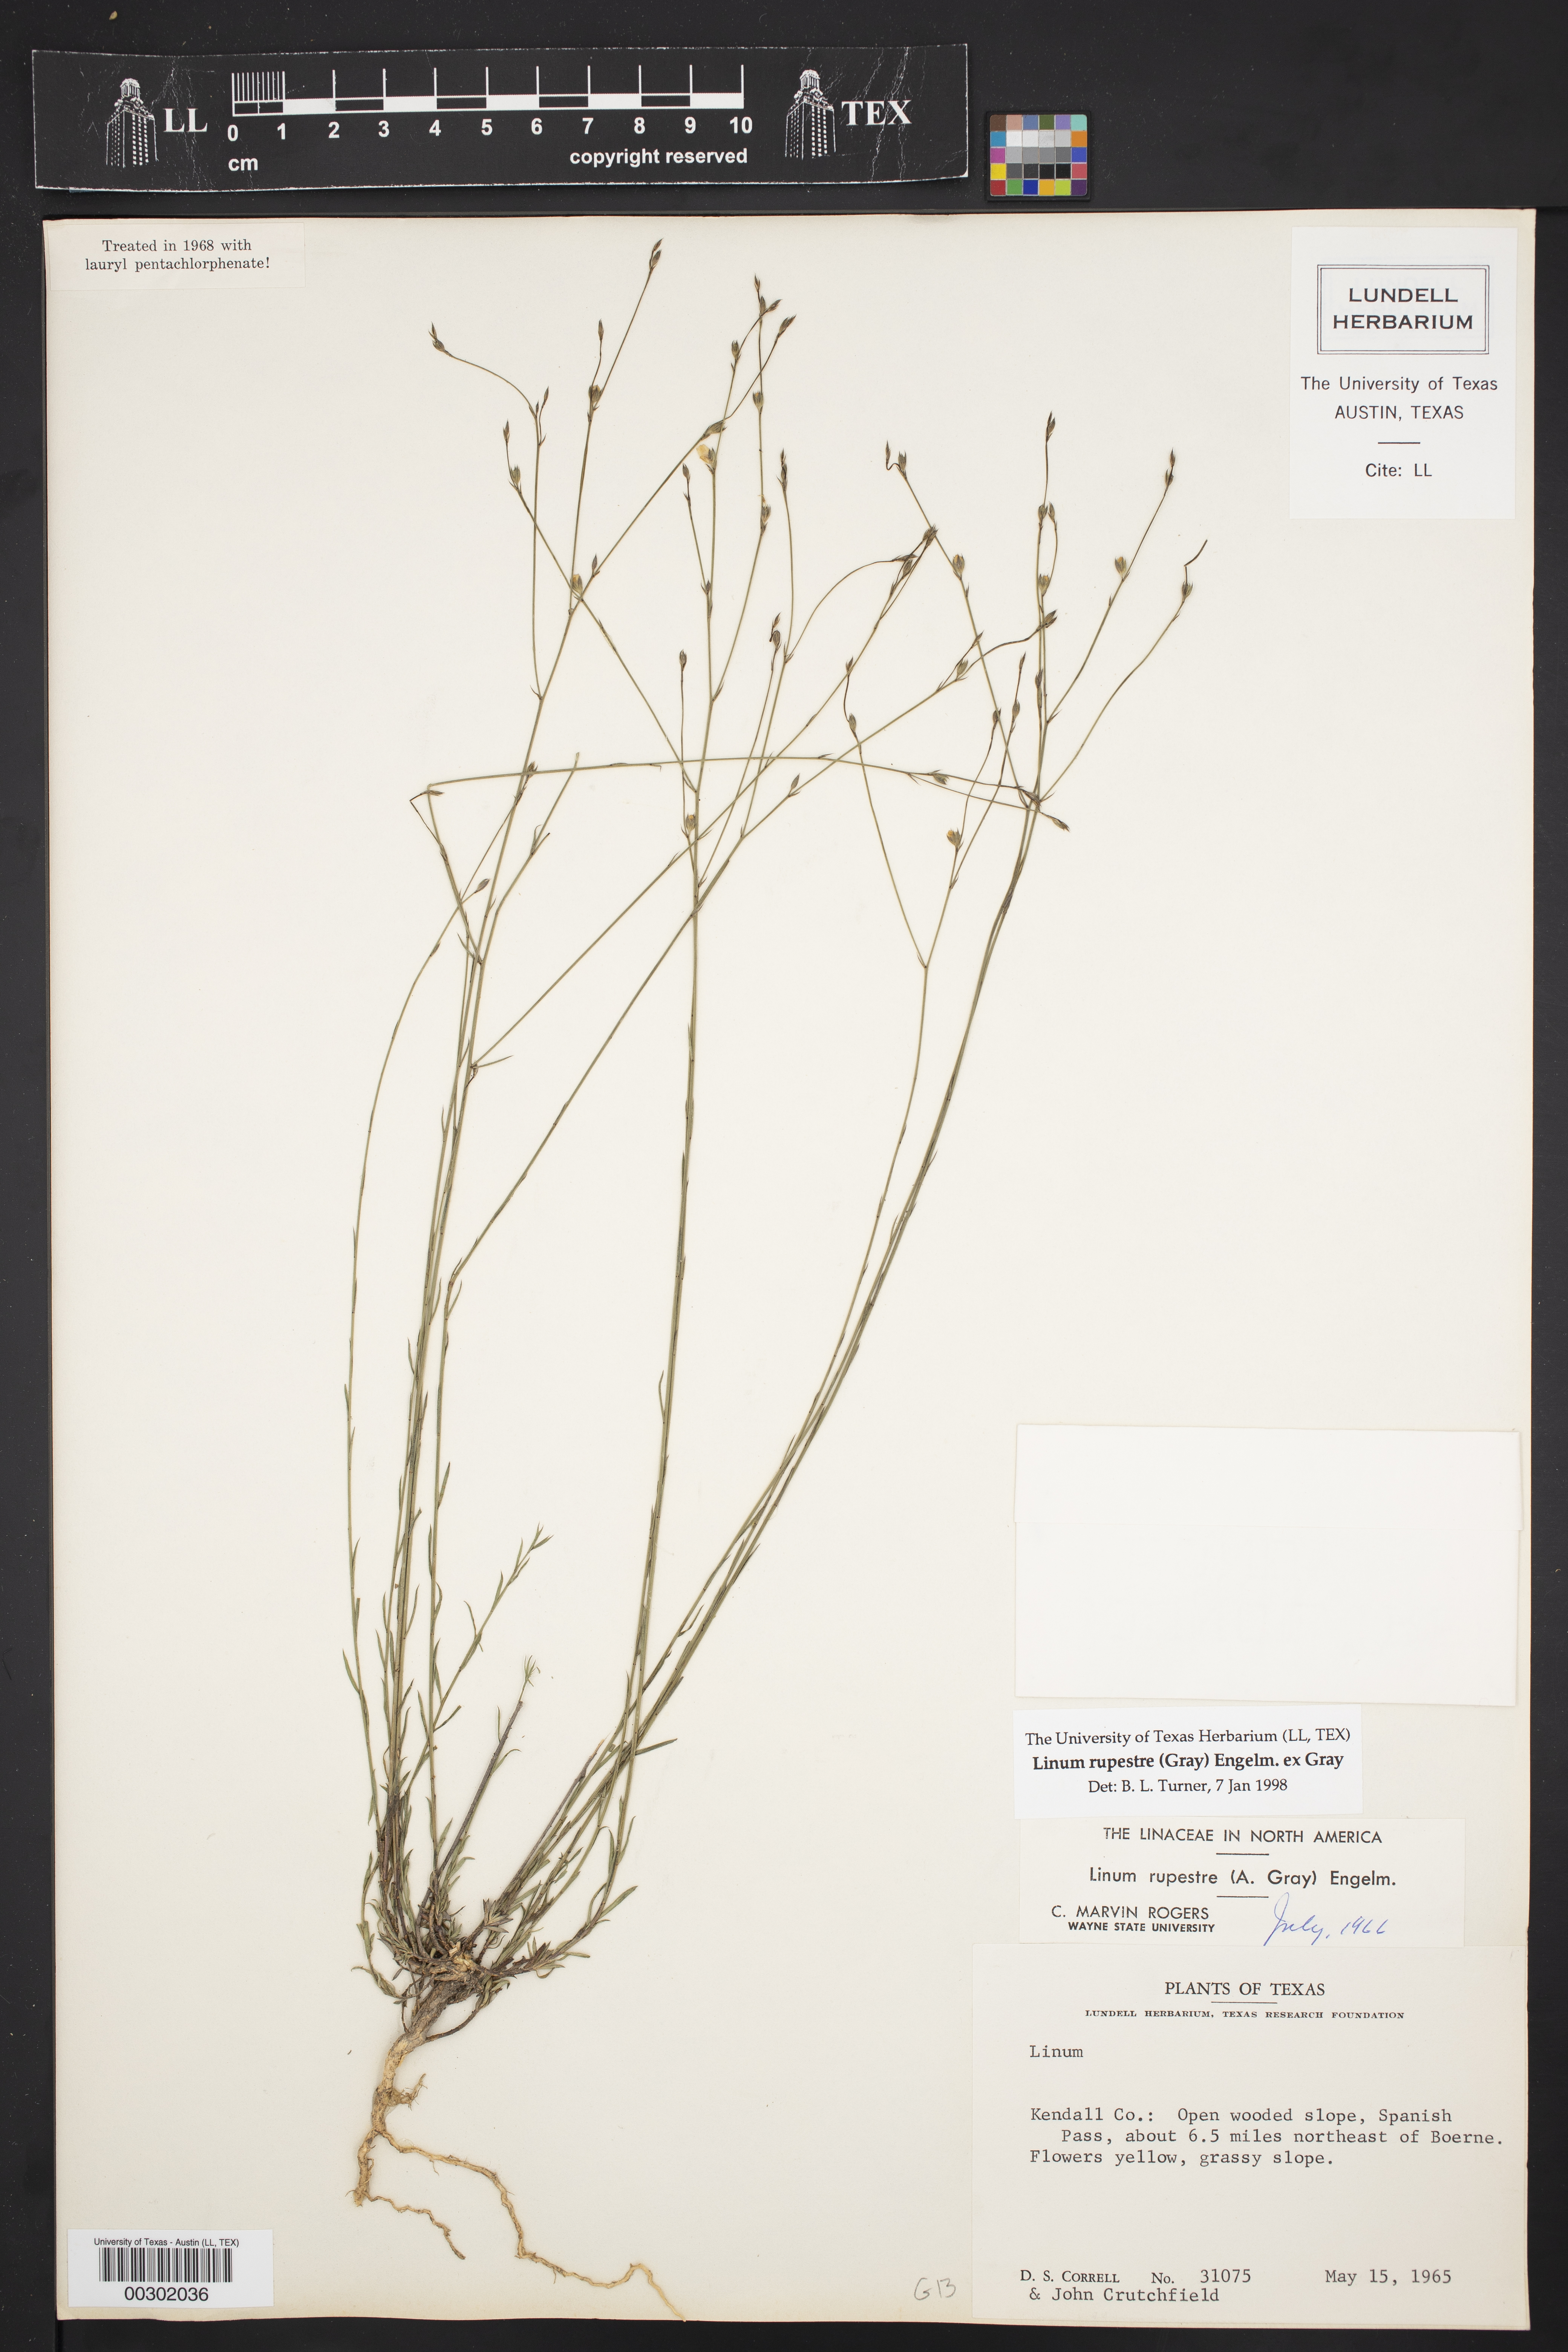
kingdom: Plantae
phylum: Tracheophyta
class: Magnoliopsida
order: Malpighiales
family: Linaceae
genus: Linum
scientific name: Linum rupestre
